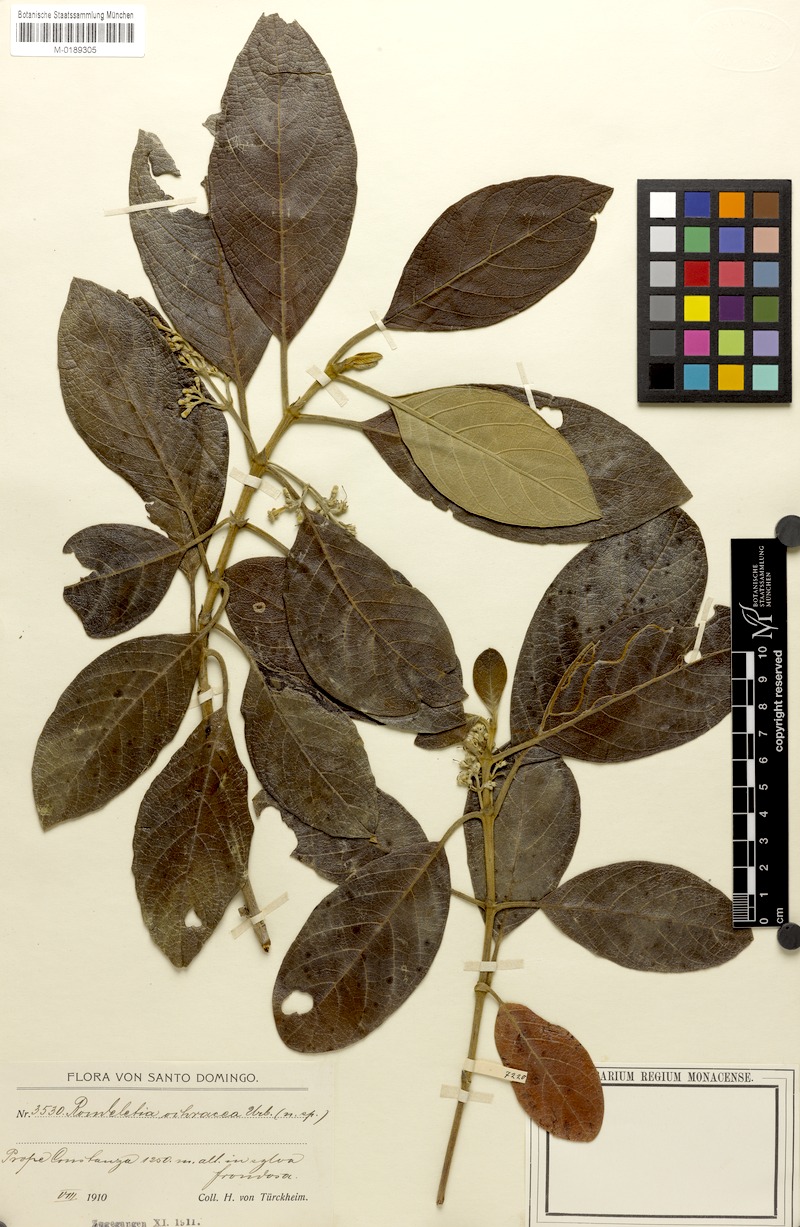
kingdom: Plantae
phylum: Tracheophyta
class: Magnoliopsida
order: Gentianales
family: Rubiaceae
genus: Rondeletia
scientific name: Rondeletia ochracea
